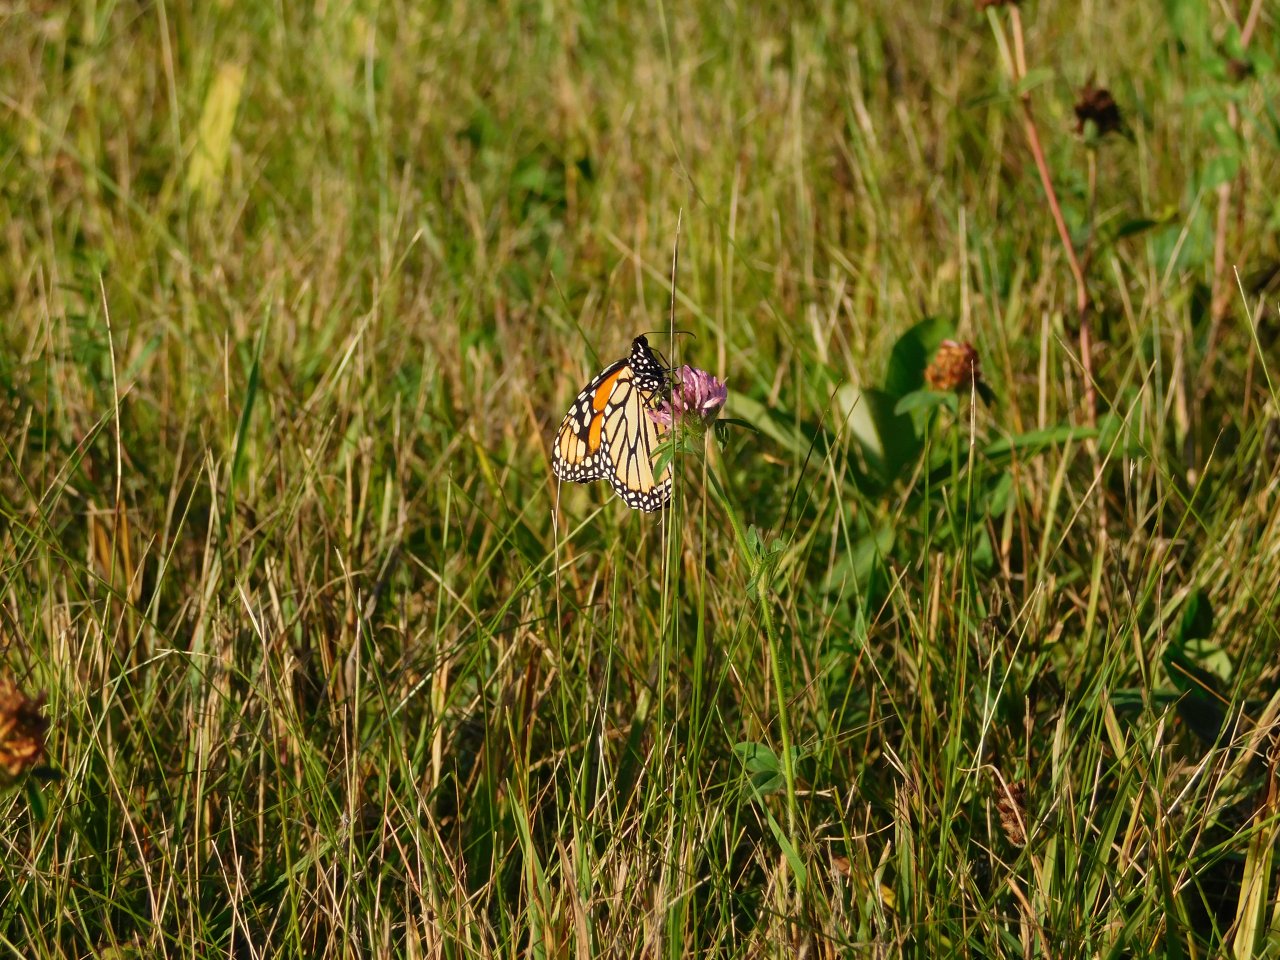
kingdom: Animalia
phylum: Arthropoda
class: Insecta
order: Lepidoptera
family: Nymphalidae
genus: Danaus
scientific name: Danaus plexippus
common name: Monarch
